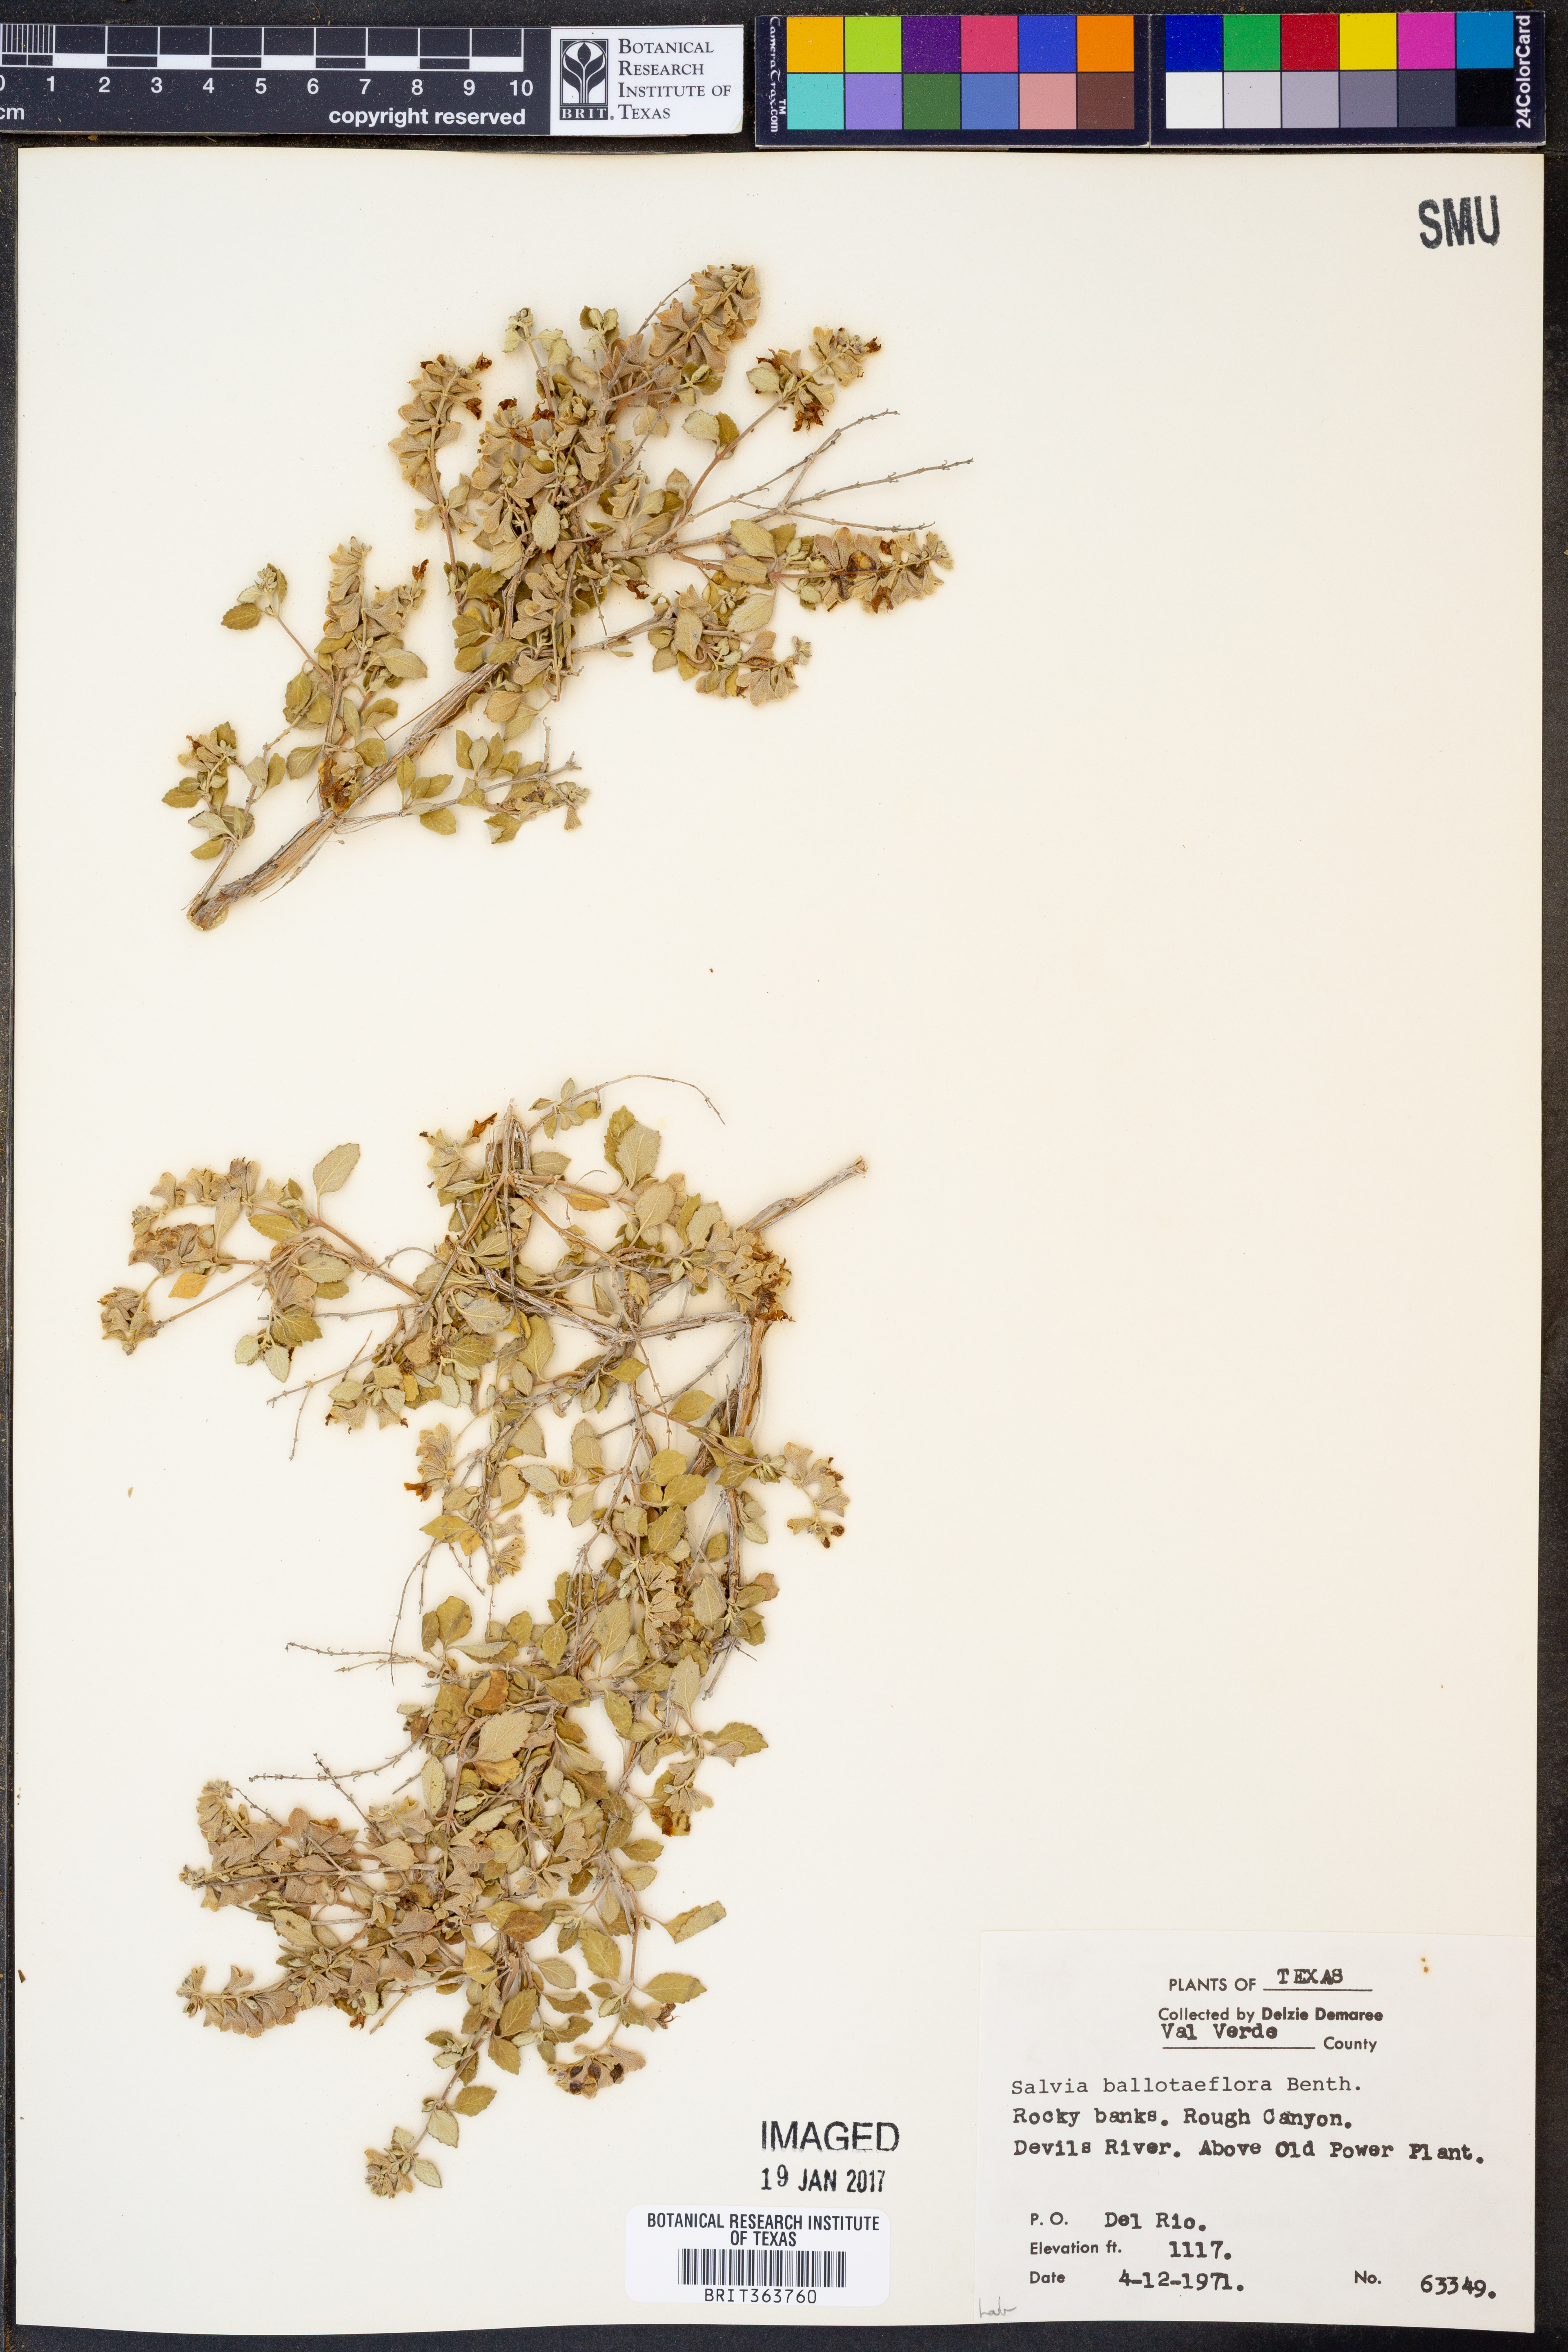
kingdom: Plantae
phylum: Tracheophyta
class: Magnoliopsida
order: Lamiales
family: Lamiaceae
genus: Salvia
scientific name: Salvia ballotiflora
